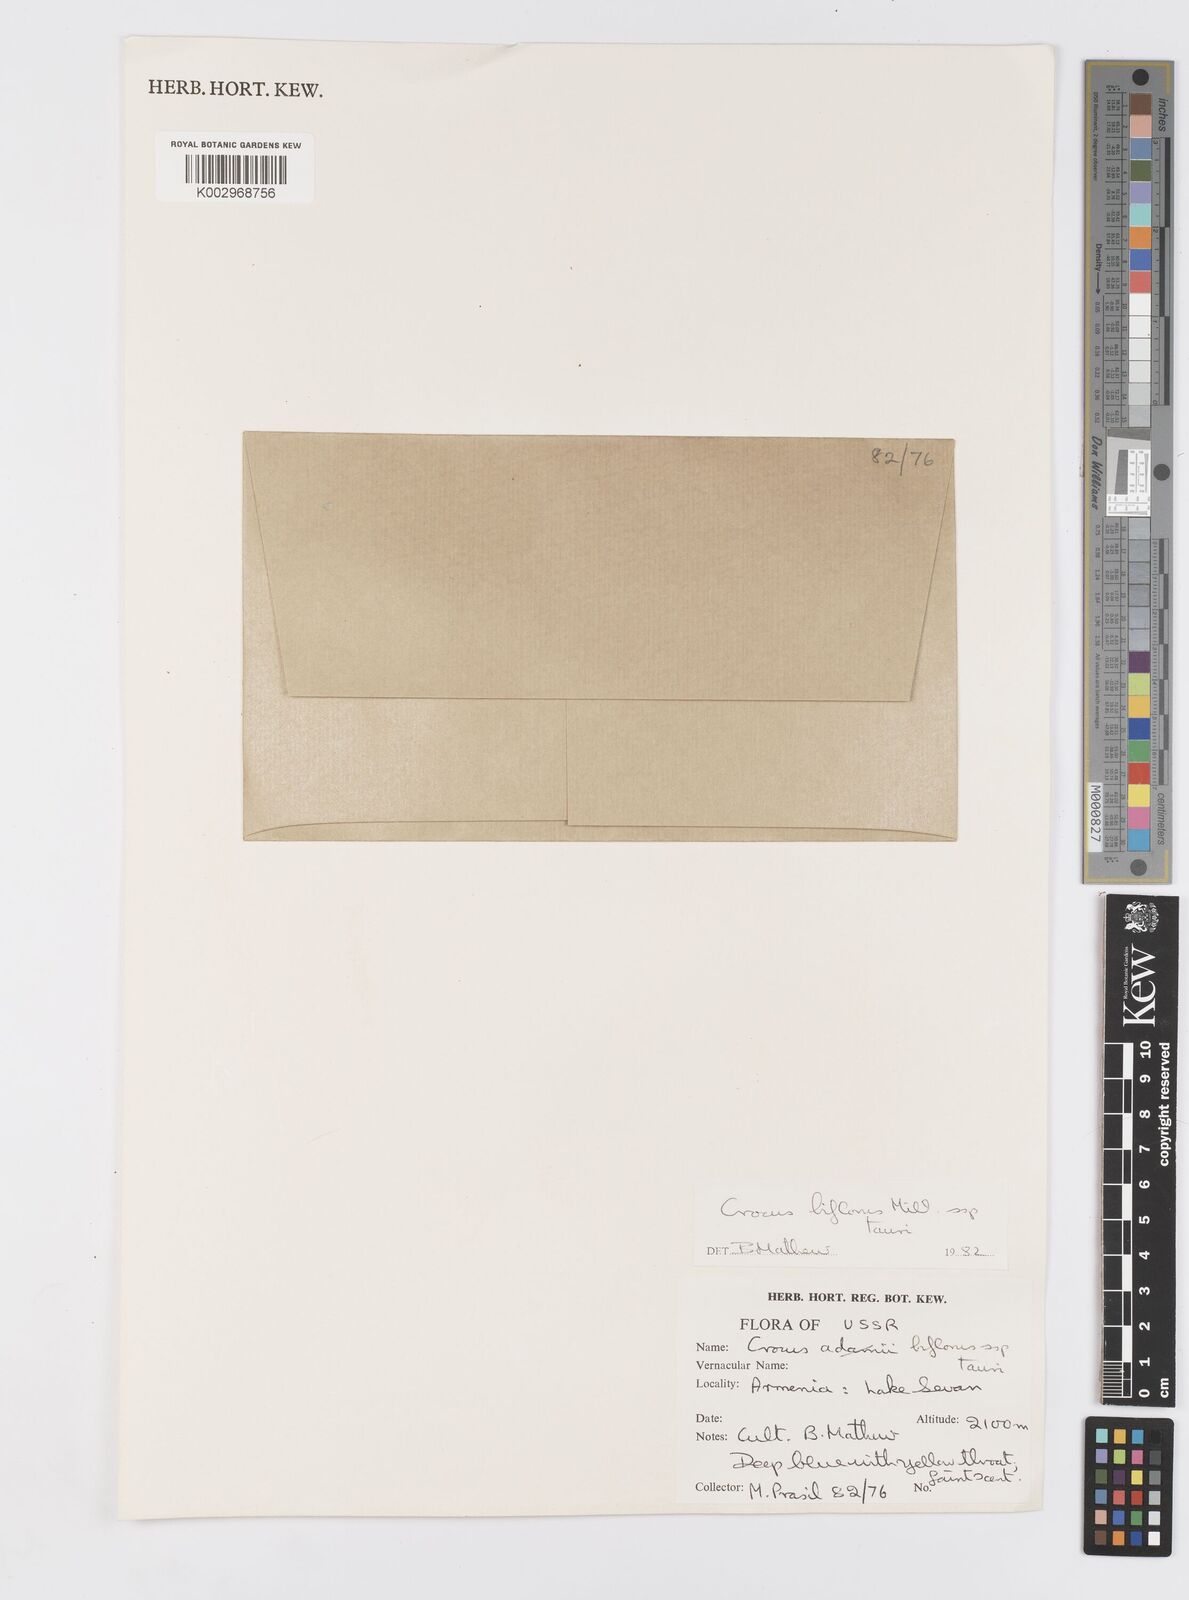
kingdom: Plantae
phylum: Tracheophyta
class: Liliopsida
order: Asparagales
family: Iridaceae
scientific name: Iridaceae
